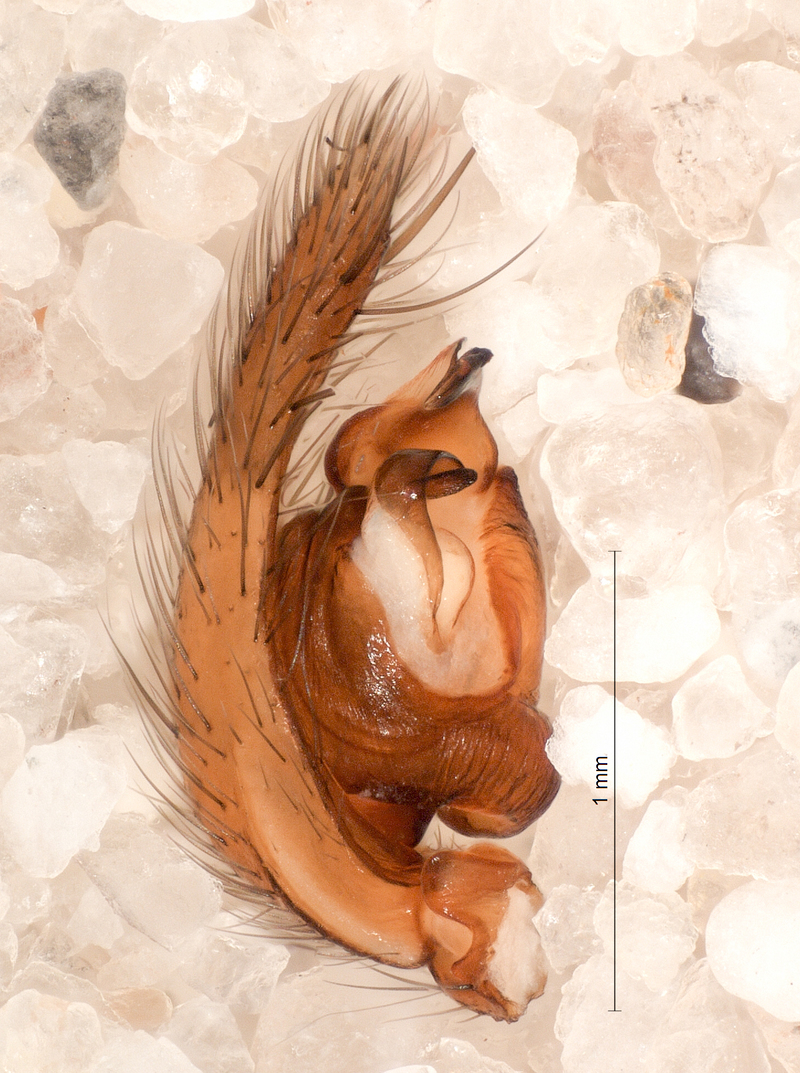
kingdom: Animalia
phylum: Arthropoda
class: Arachnida
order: Araneae
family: Agelenidae
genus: Inermocoelotes
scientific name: Inermocoelotes inermis
